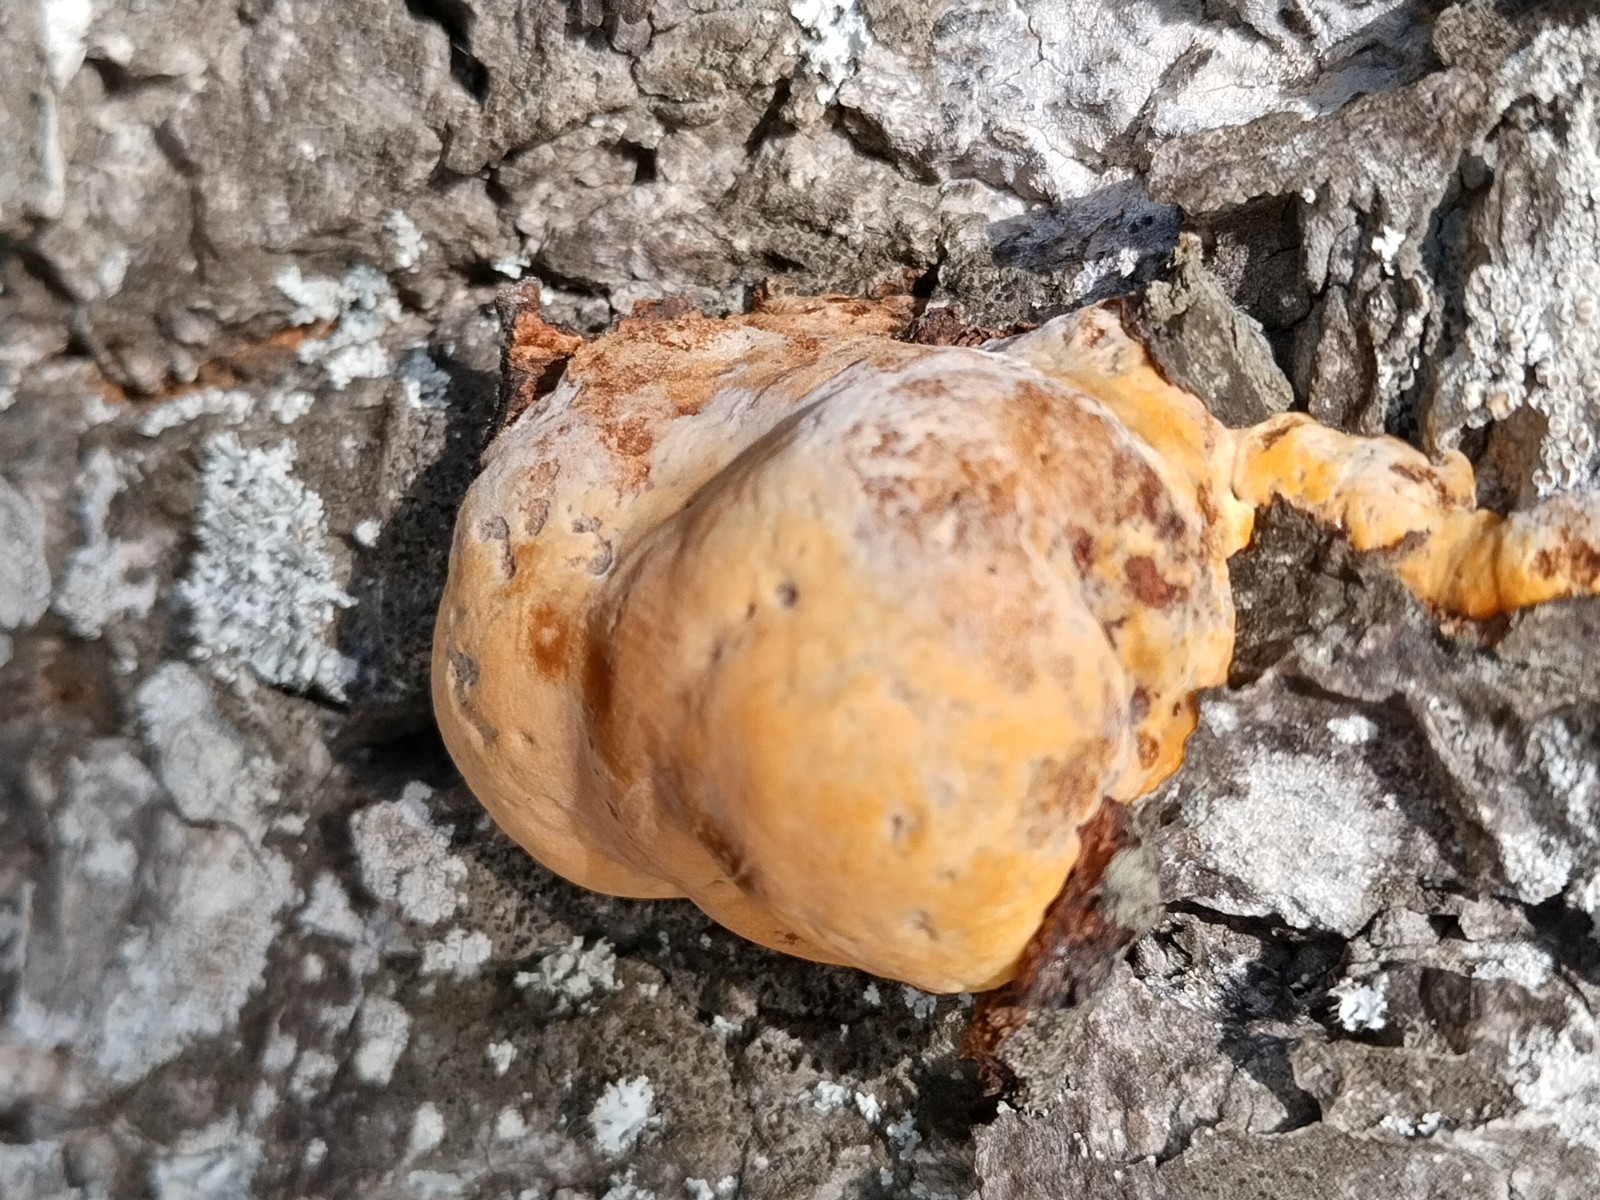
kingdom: Fungi
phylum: Basidiomycota
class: Agaricomycetes
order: Hymenochaetales
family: Hymenochaetaceae
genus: Inonotus
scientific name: Inonotus hispidus
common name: børstehåret spejlporesvamp
